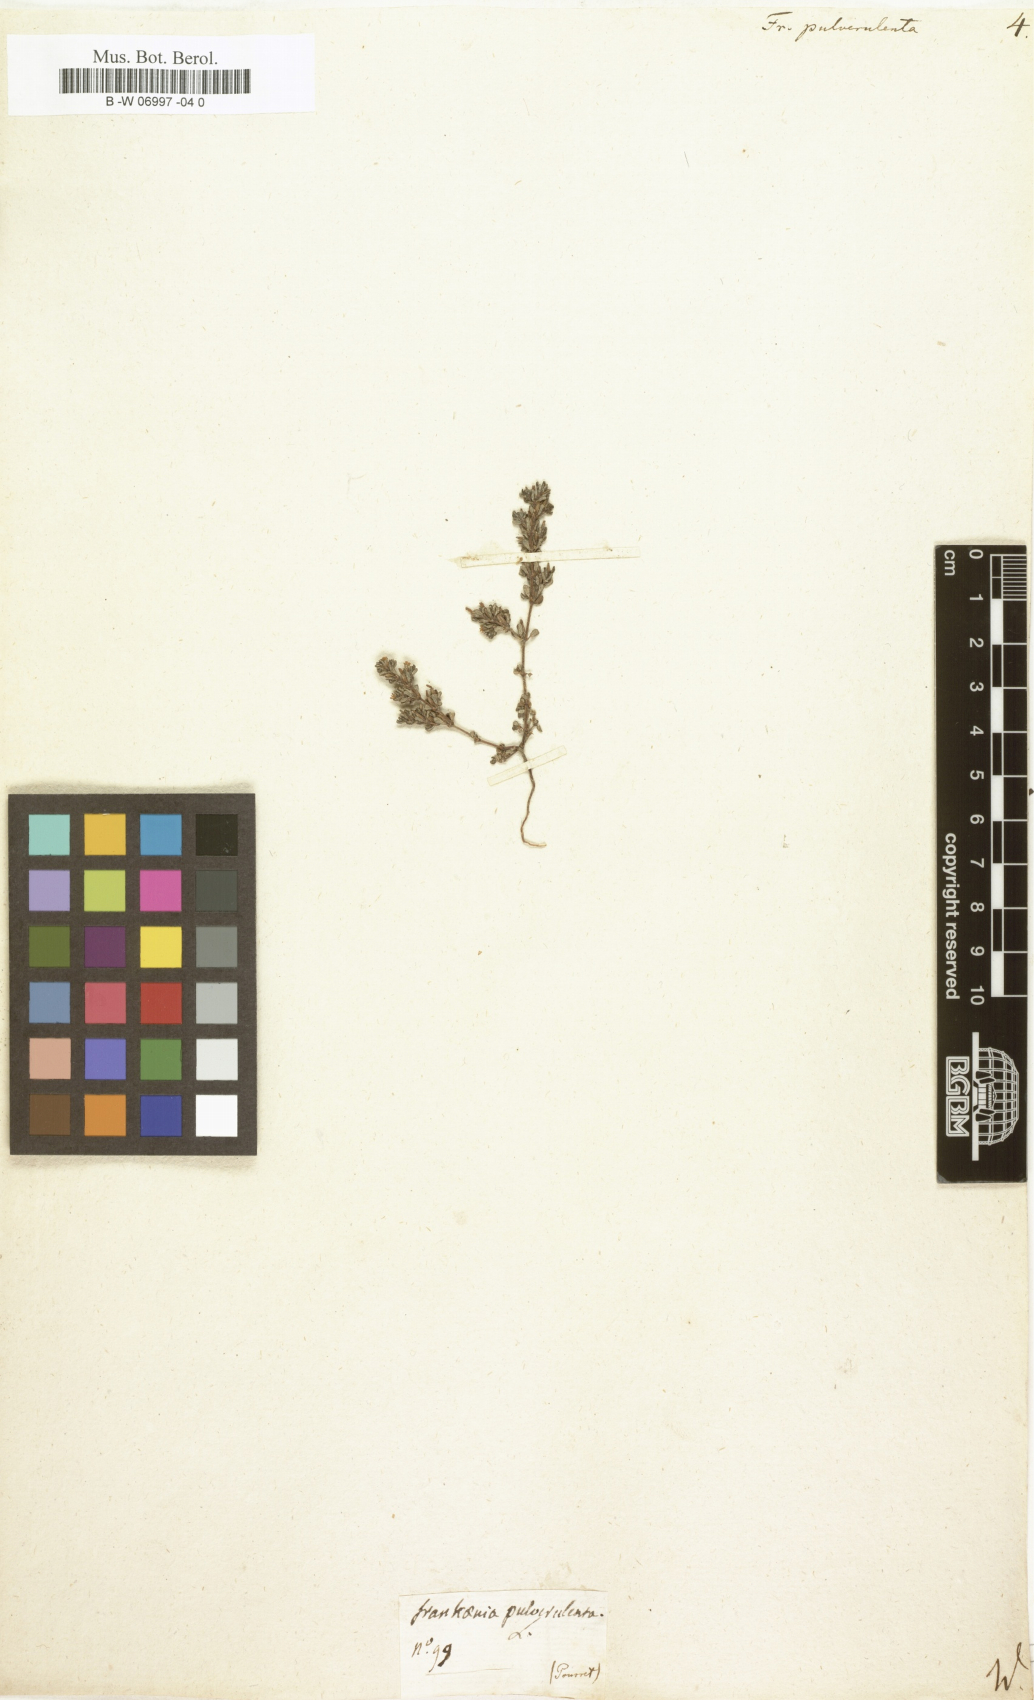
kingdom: Plantae
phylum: Tracheophyta
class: Magnoliopsida
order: Caryophyllales
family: Frankeniaceae
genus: Frankenia
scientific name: Frankenia pulverulenta
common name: European seaheath
